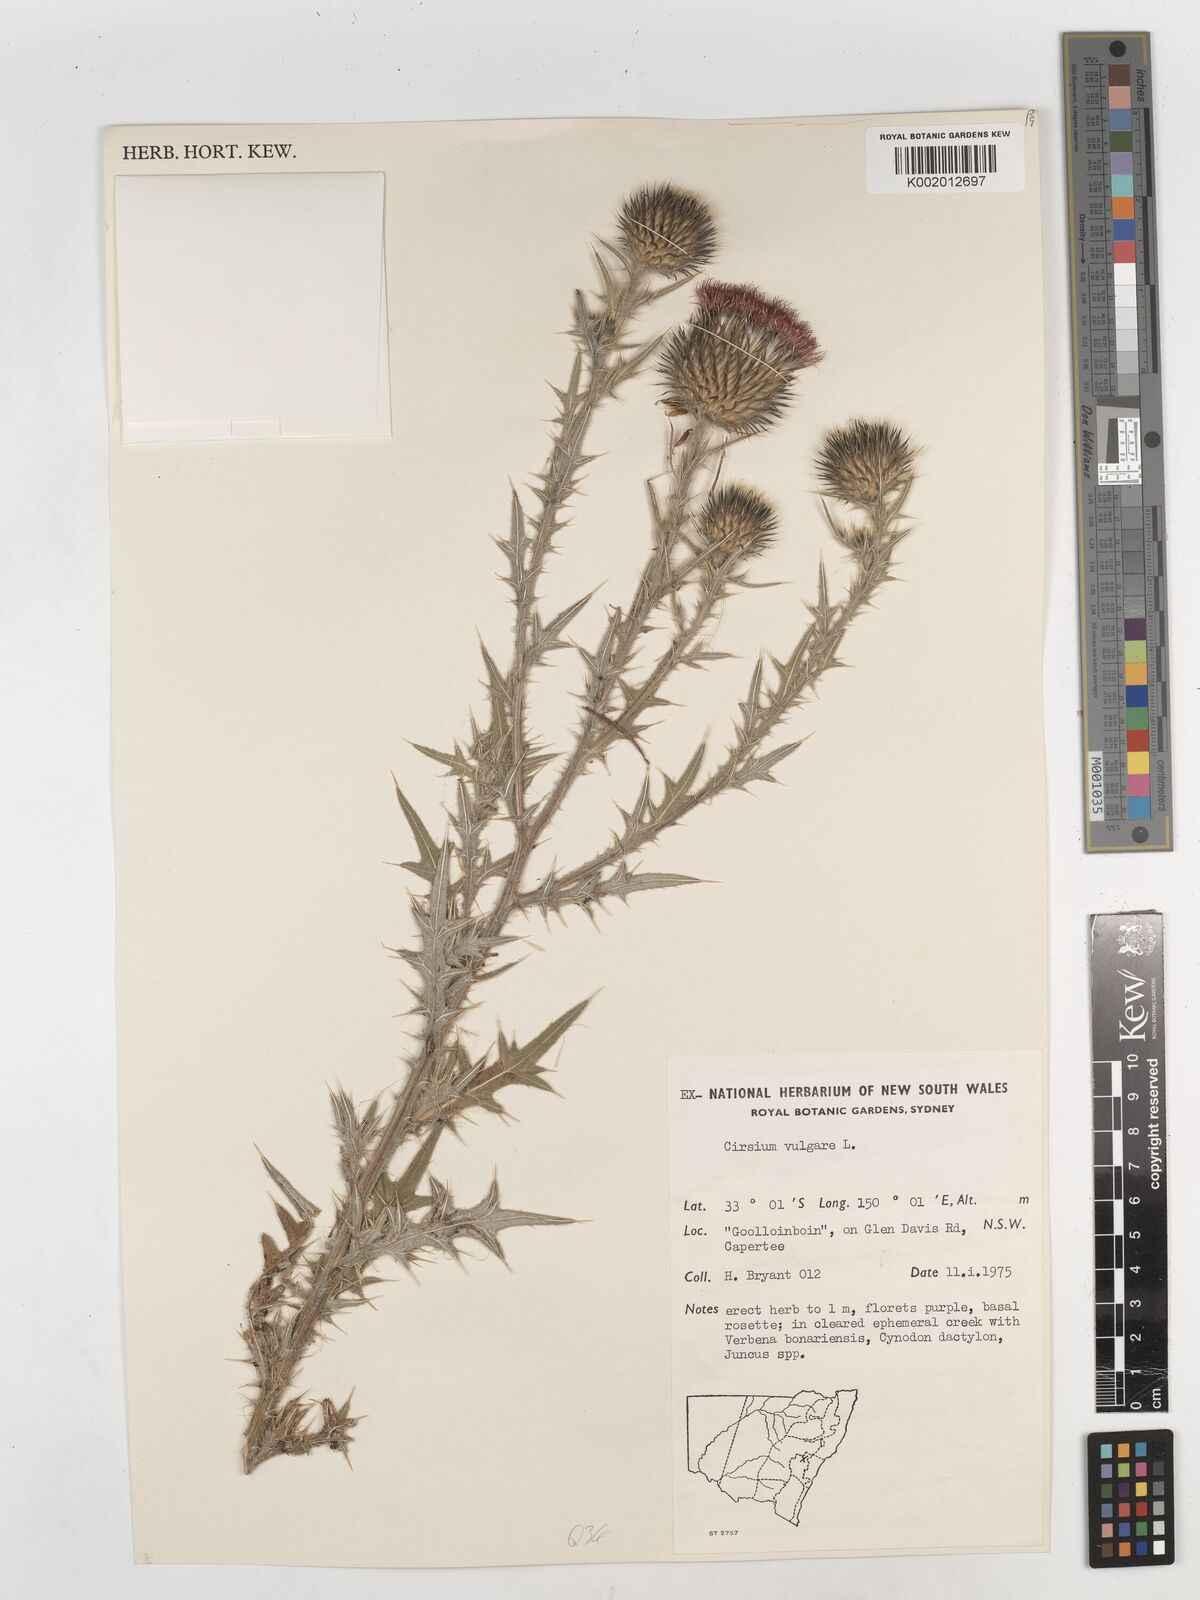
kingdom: Plantae
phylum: Tracheophyta
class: Magnoliopsida
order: Asterales
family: Asteraceae
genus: Cirsium
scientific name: Cirsium vulgare
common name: Bull thistle
